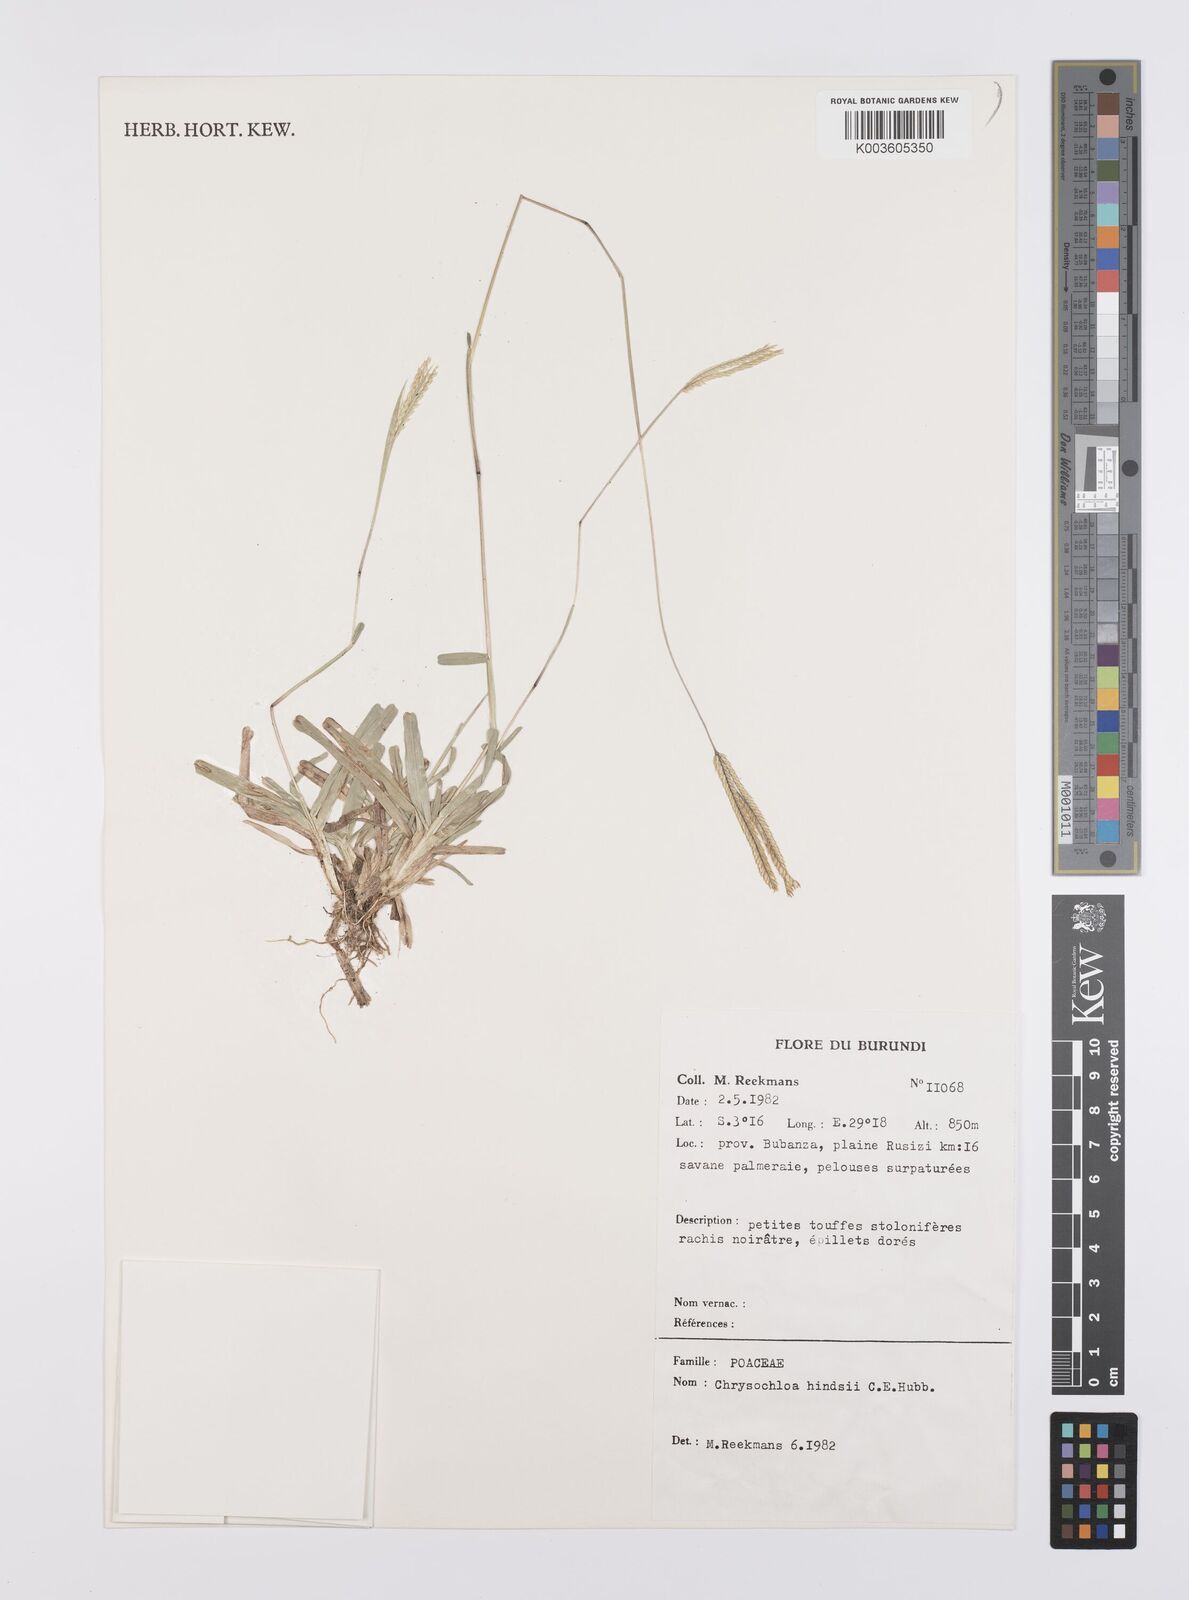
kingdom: Plantae
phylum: Tracheophyta
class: Liliopsida
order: Poales
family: Poaceae
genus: Chrysochloa
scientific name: Chrysochloa hindsii
